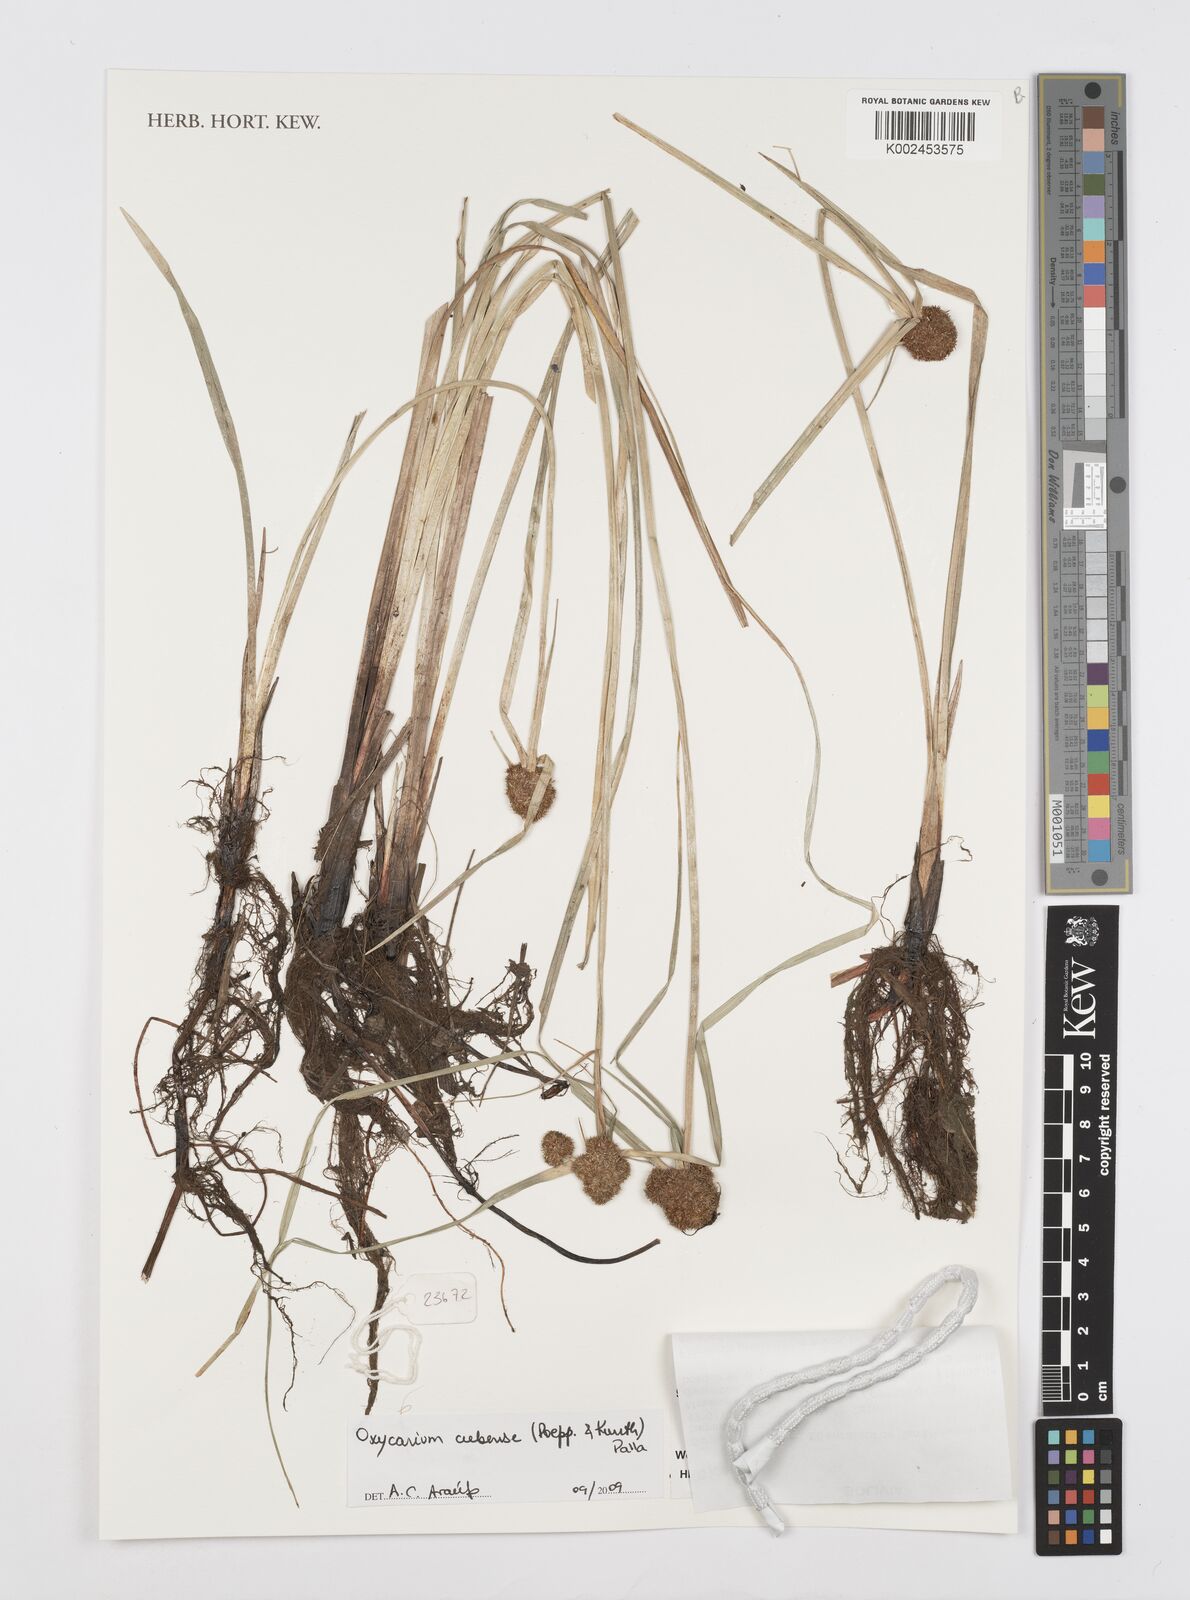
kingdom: Plantae
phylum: Tracheophyta
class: Liliopsida
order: Poales
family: Cyperaceae
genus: Cyperus
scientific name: Cyperus elegans
